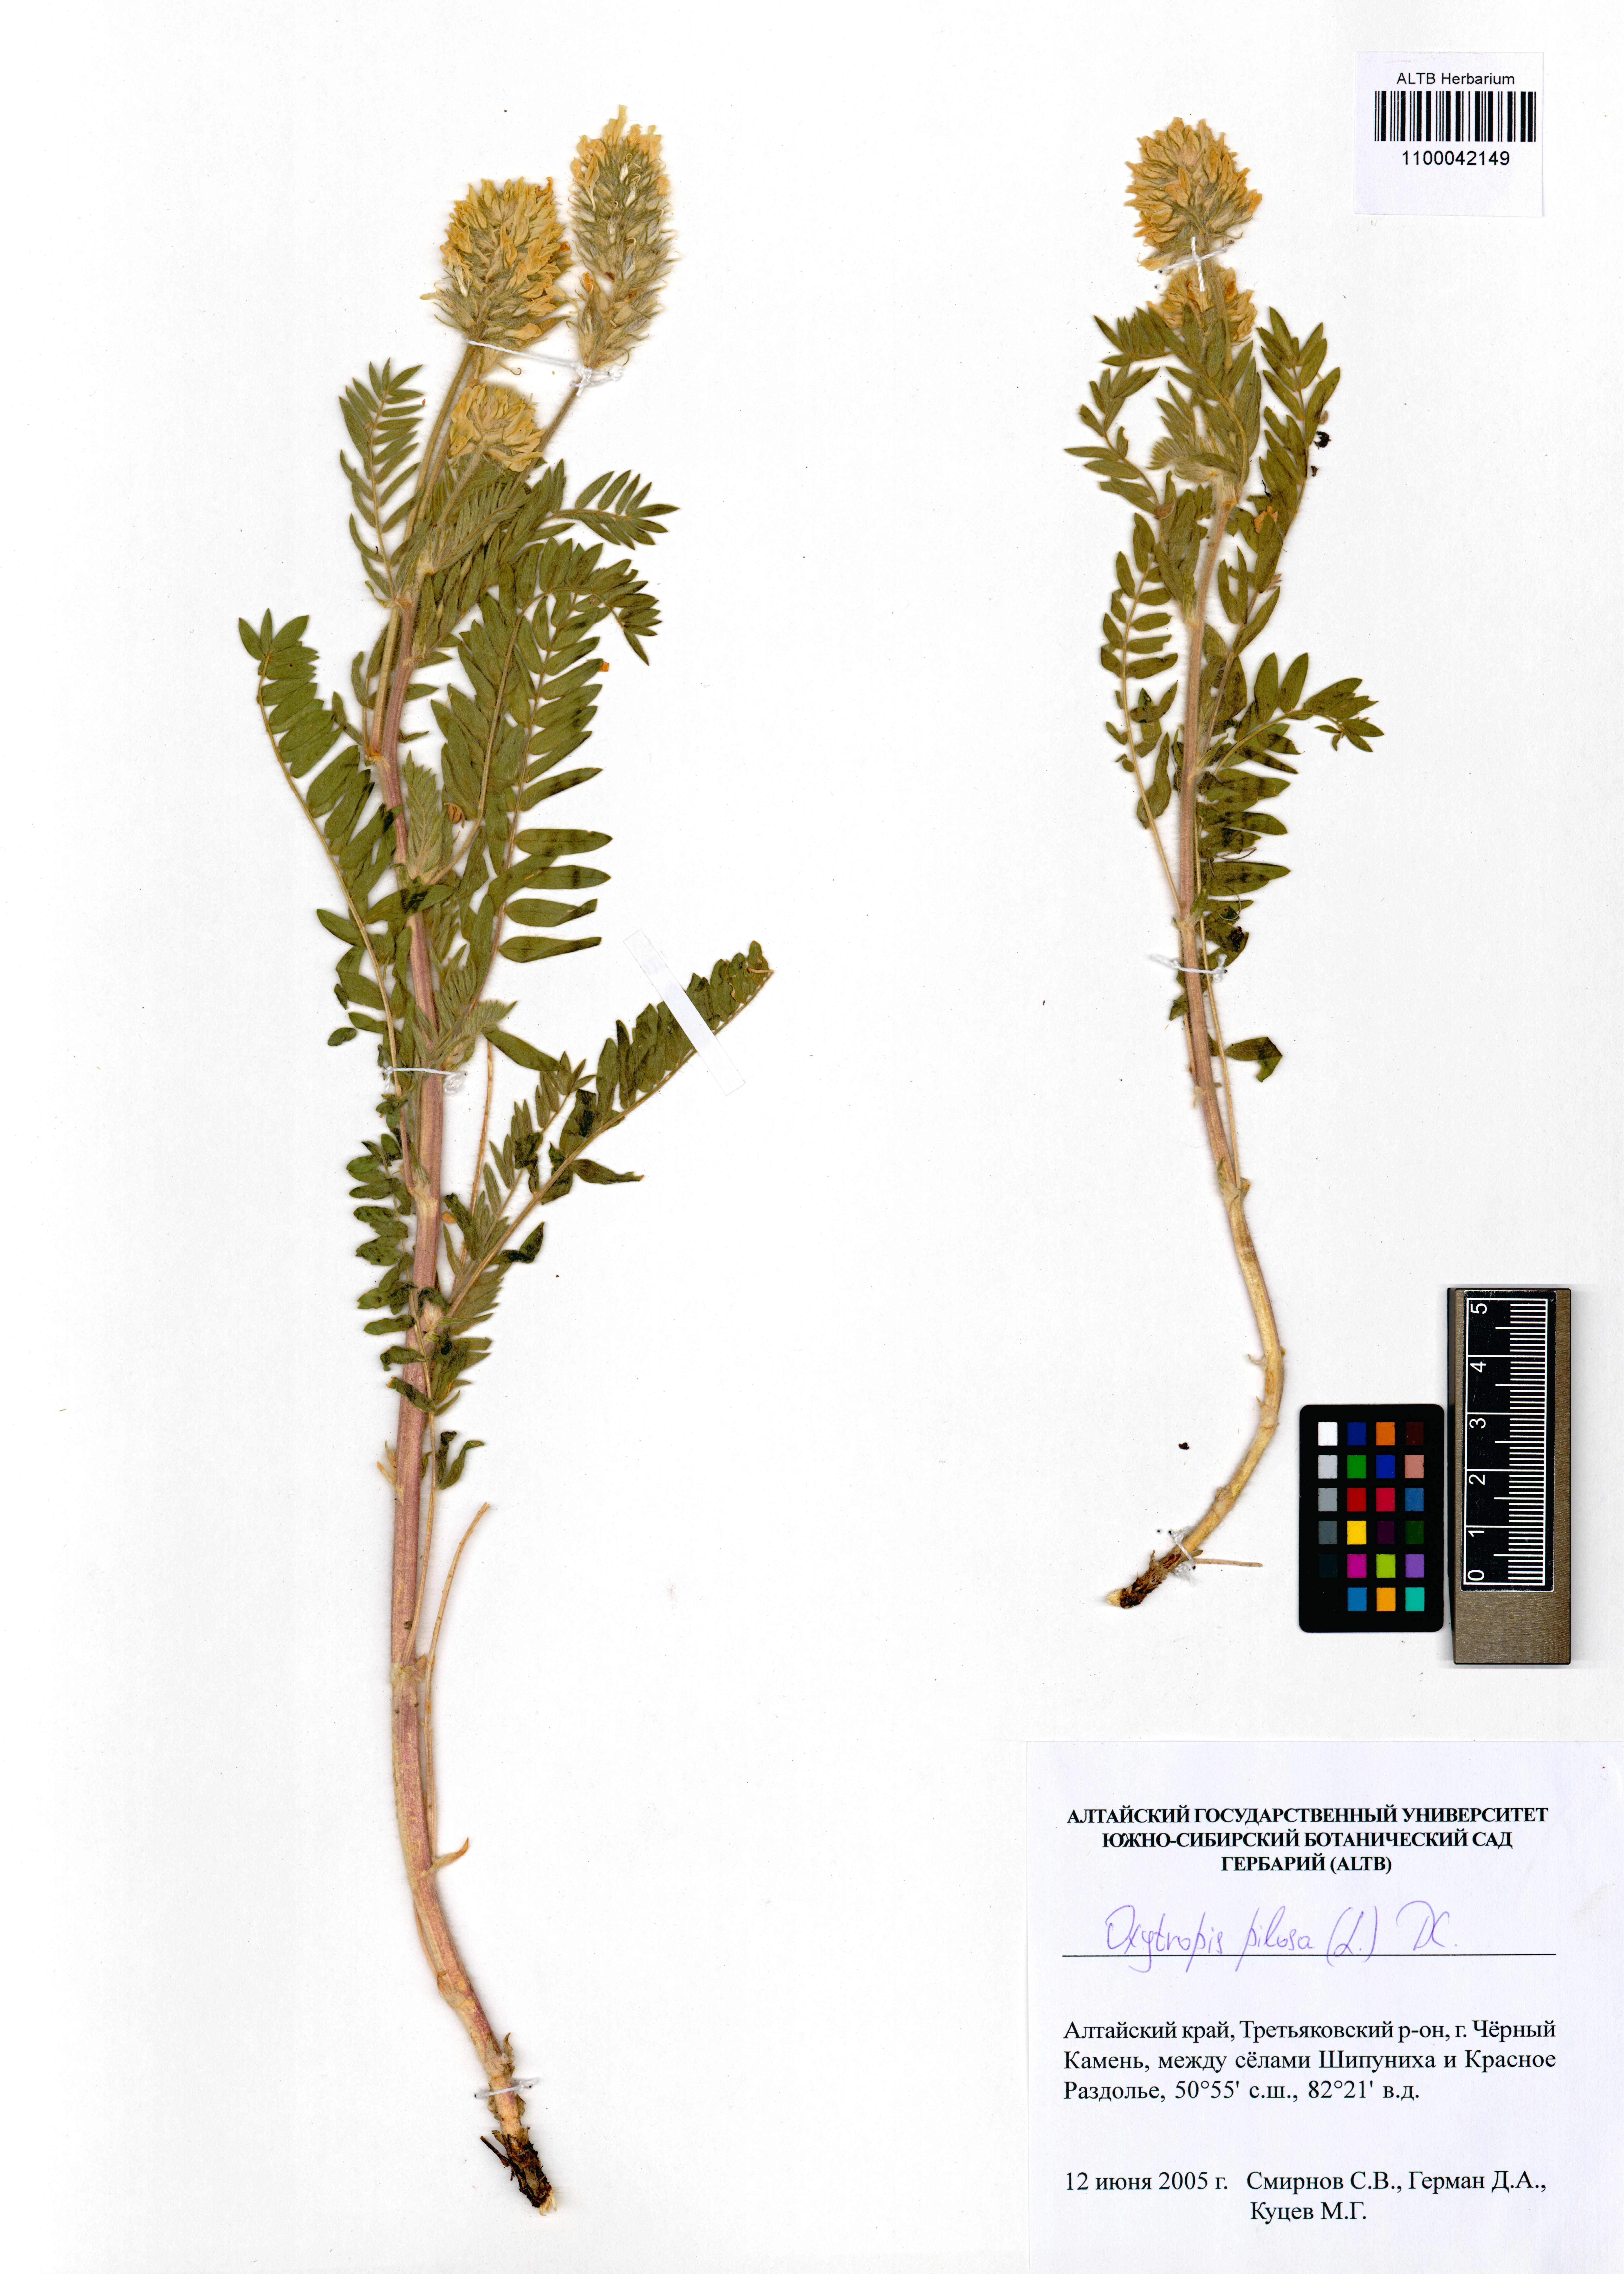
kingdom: Plantae
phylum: Tracheophyta
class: Magnoliopsida
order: Fabales
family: Fabaceae
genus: Oxytropis
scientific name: Oxytropis pilosa
